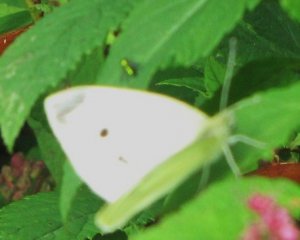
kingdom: Animalia
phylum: Arthropoda
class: Insecta
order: Lepidoptera
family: Pieridae
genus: Pieris
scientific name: Pieris rapae
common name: Cabbage White
